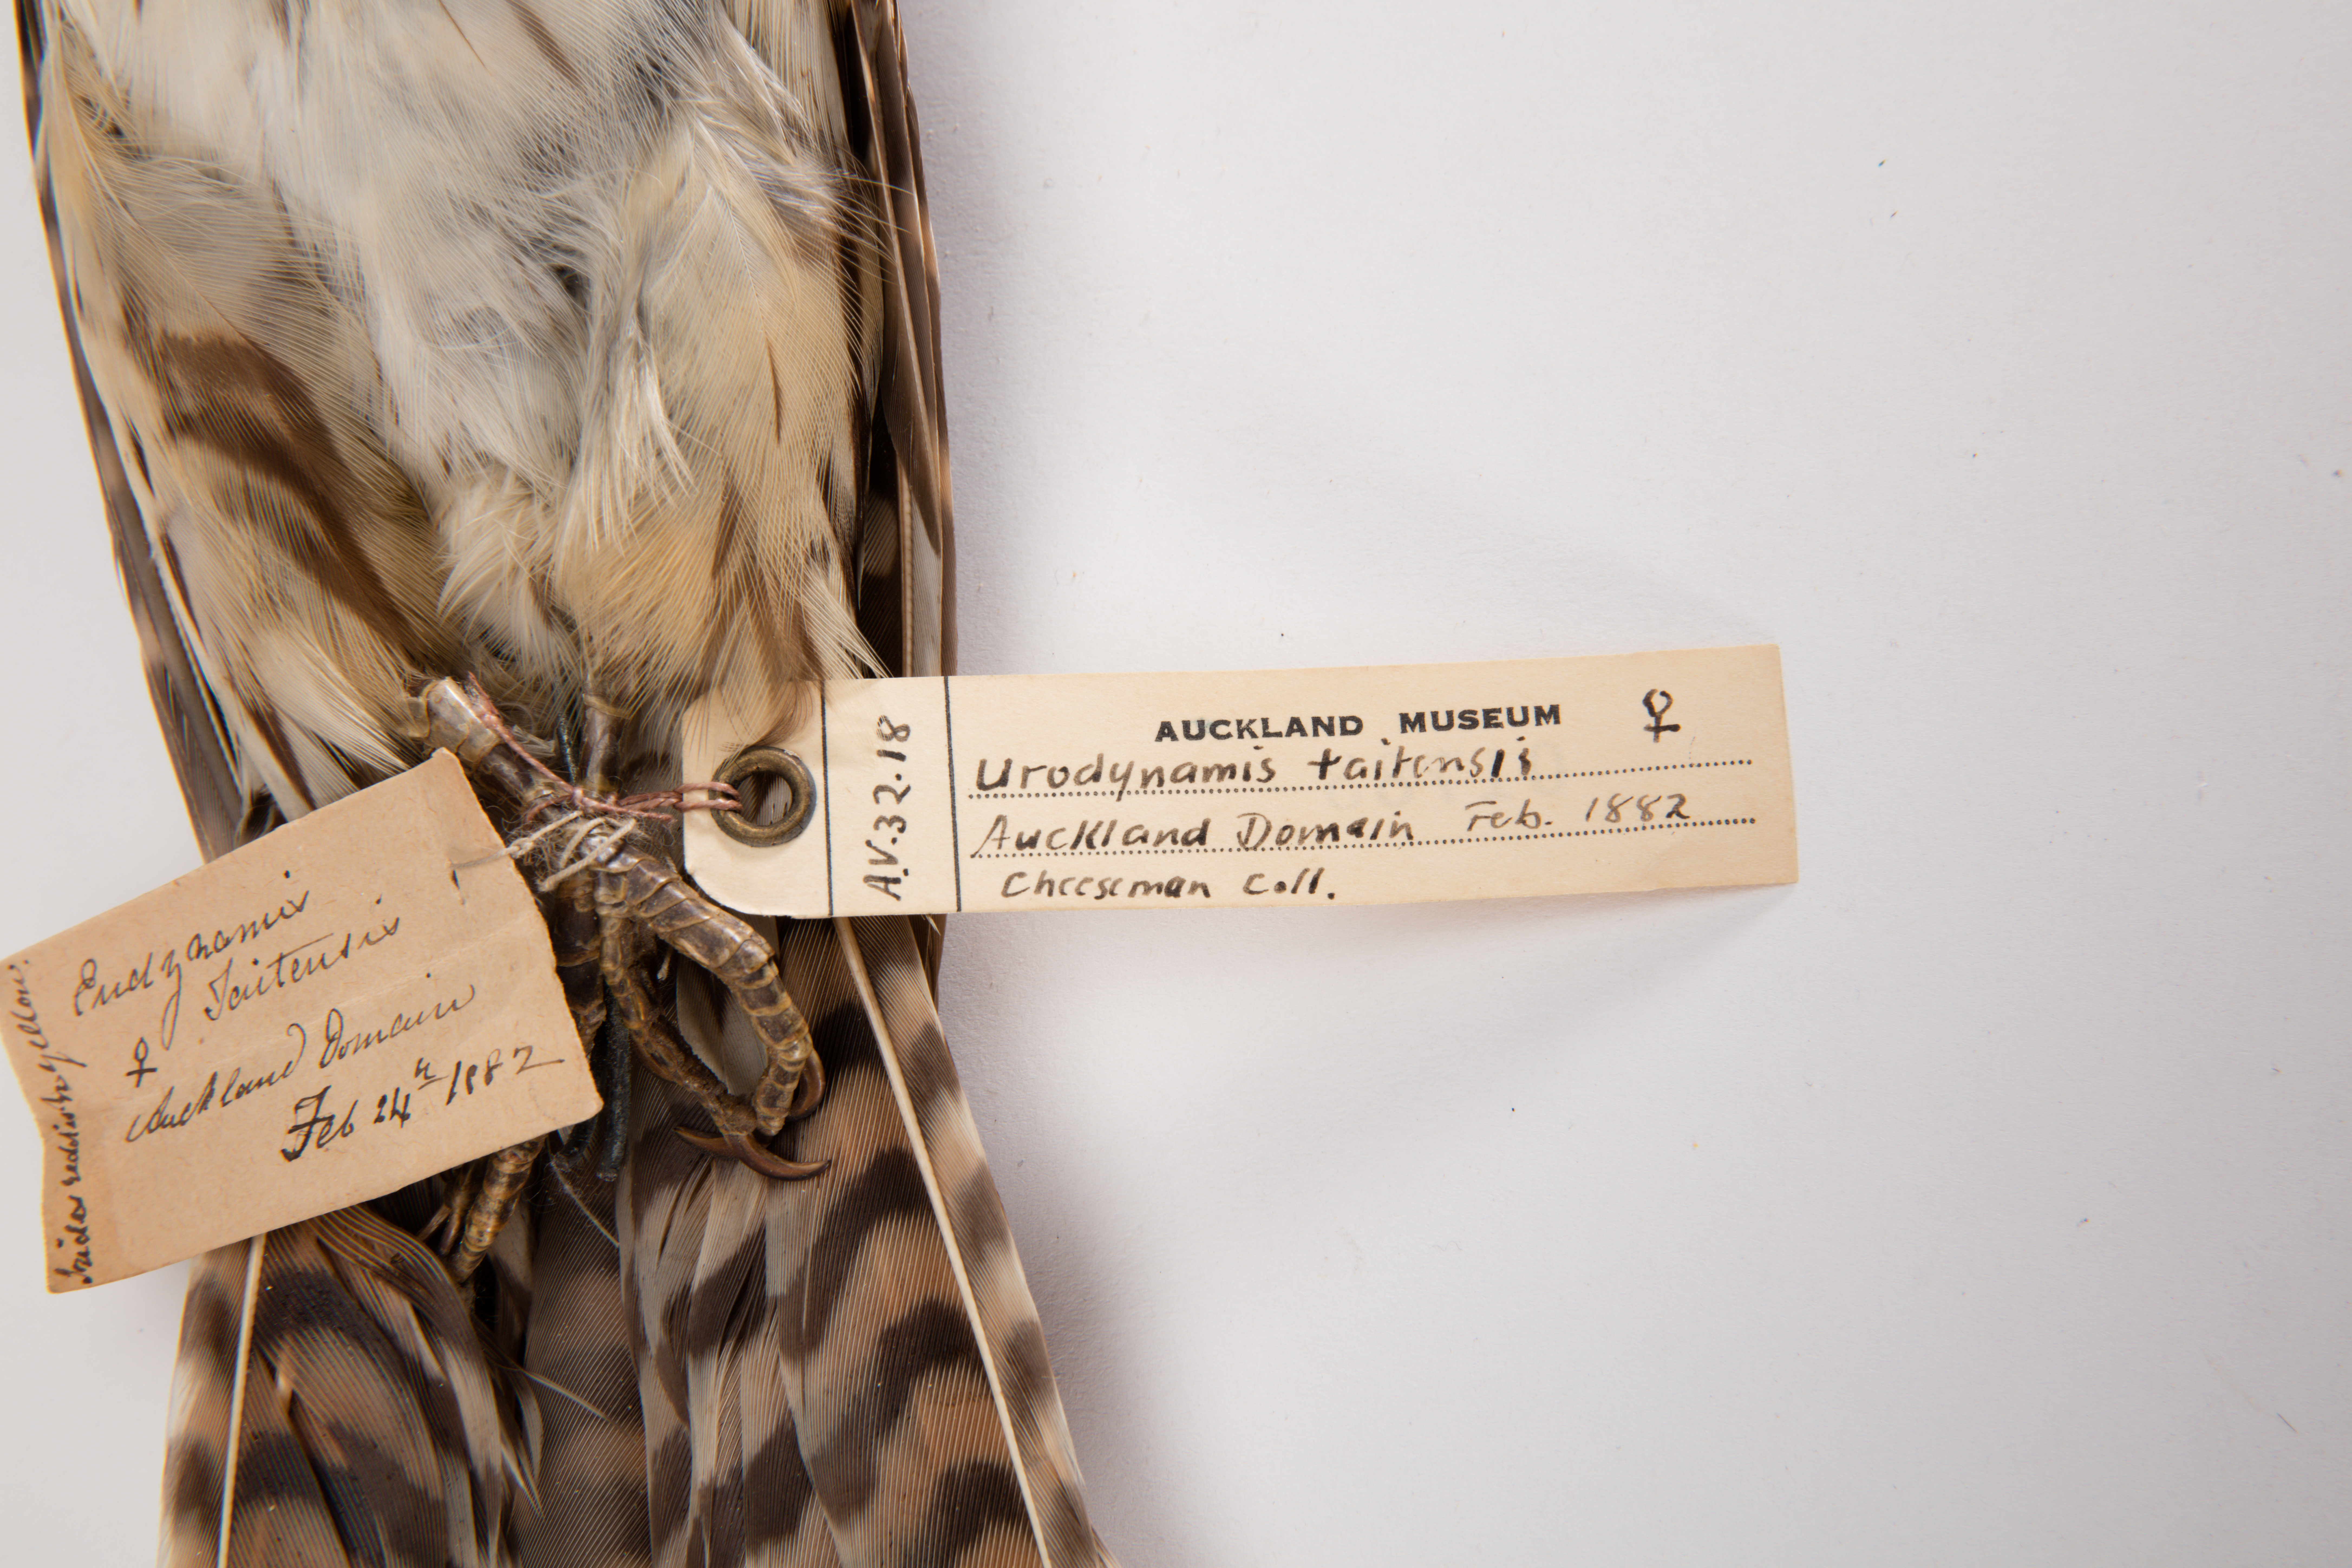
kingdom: Animalia
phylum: Chordata
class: Aves
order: Cuculiformes
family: Cuculidae
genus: Urodynamis
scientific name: Urodynamis taitensis
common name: Long-tailed koel
